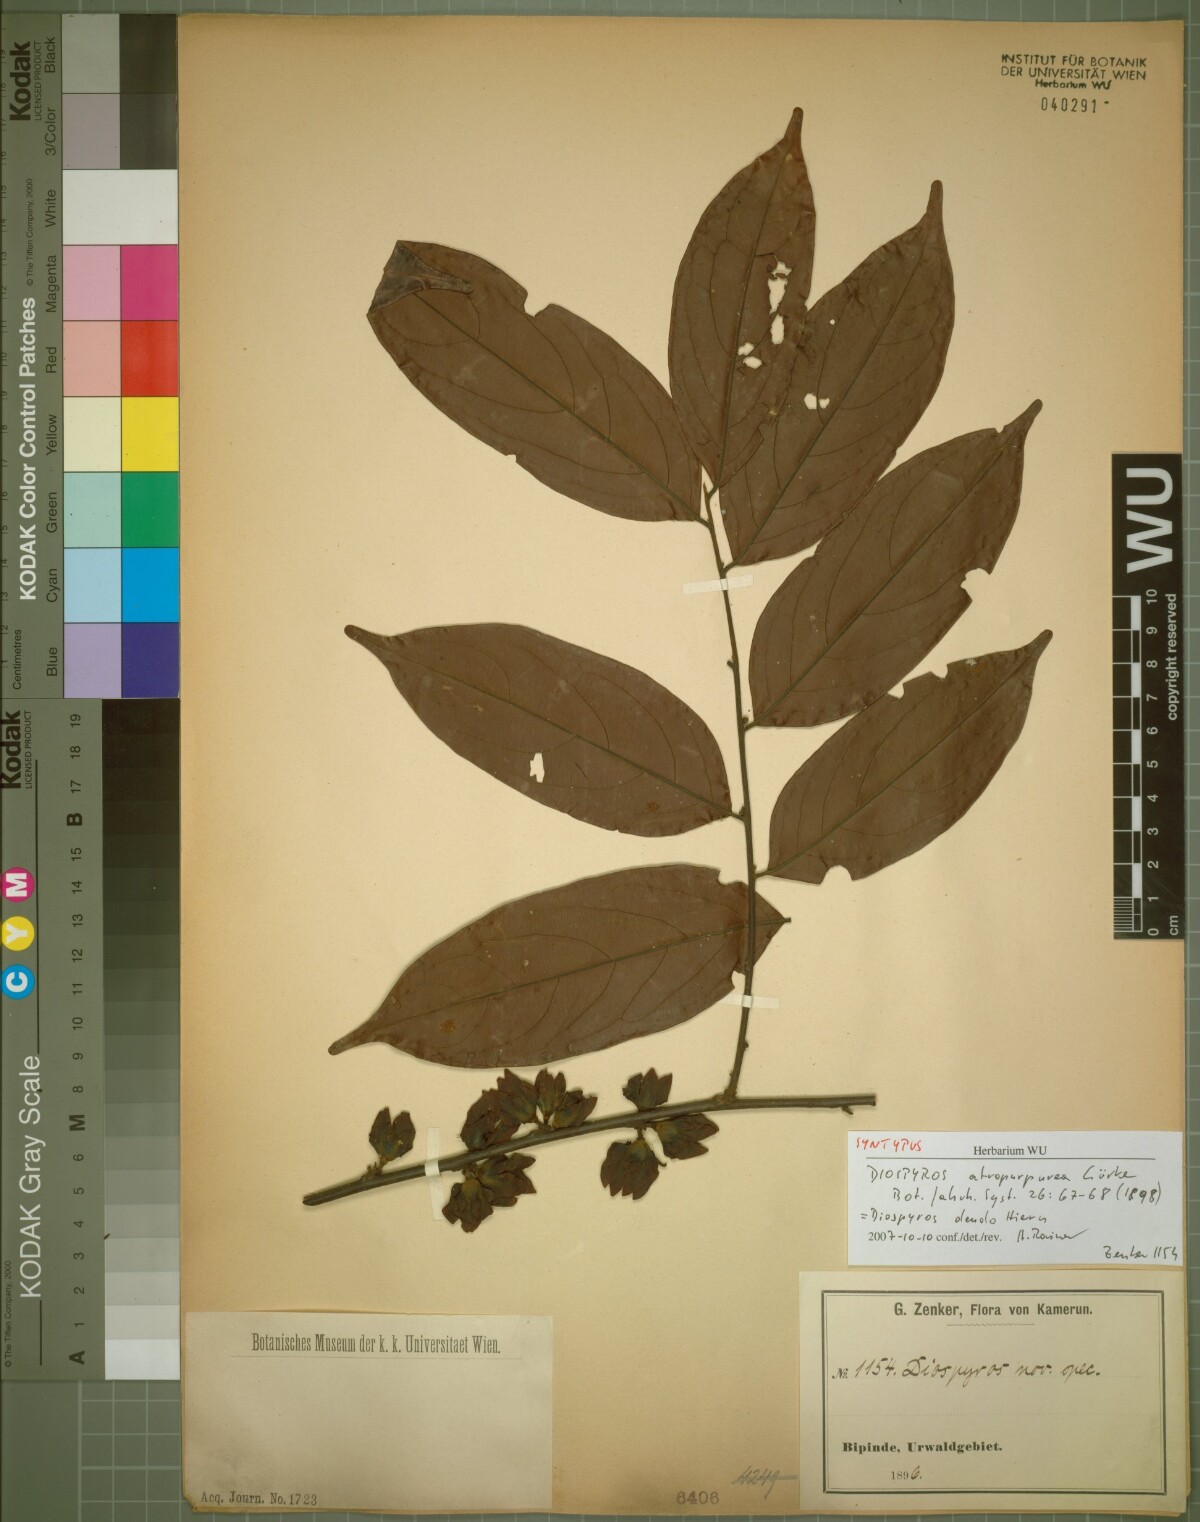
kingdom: Plantae
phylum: Tracheophyta
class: Magnoliopsida
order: Ericales
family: Ebenaceae
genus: Diospyros
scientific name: Diospyros dendo
